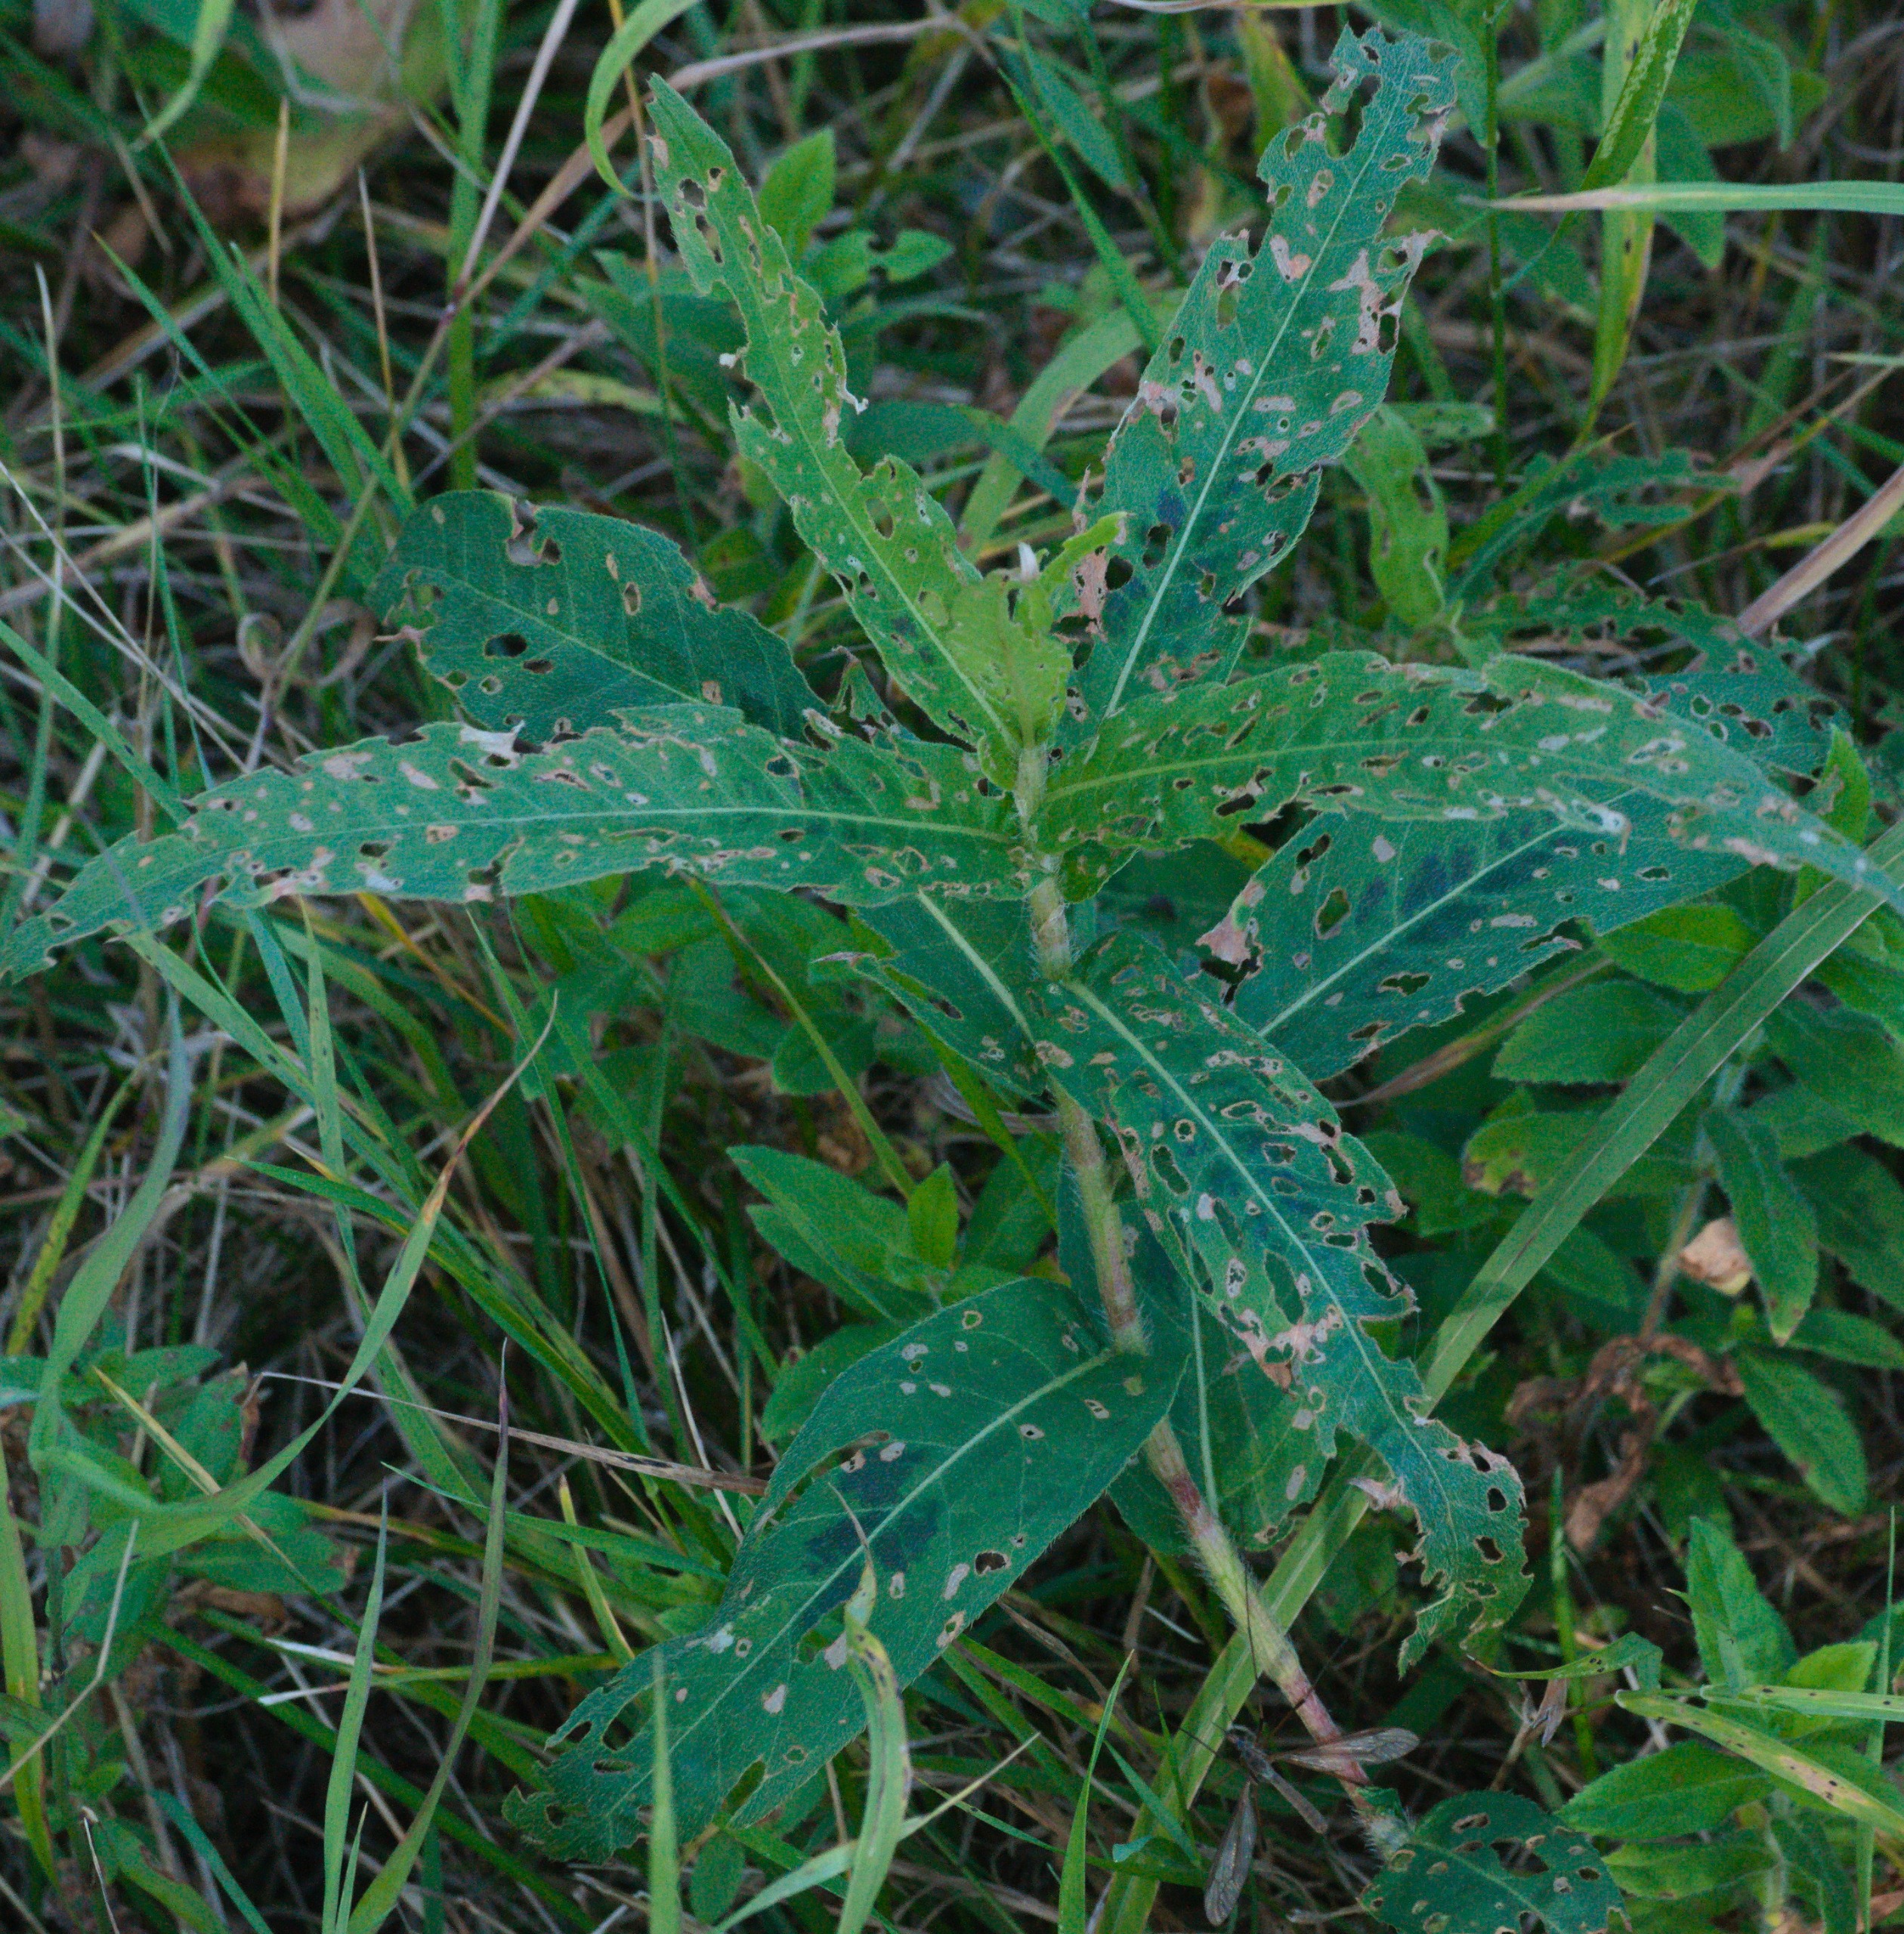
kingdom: Plantae
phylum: Tracheophyta
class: Magnoliopsida
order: Caryophyllales
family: Polygonaceae
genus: Persicaria
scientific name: Persicaria amphibia
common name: Vand-pileurt
